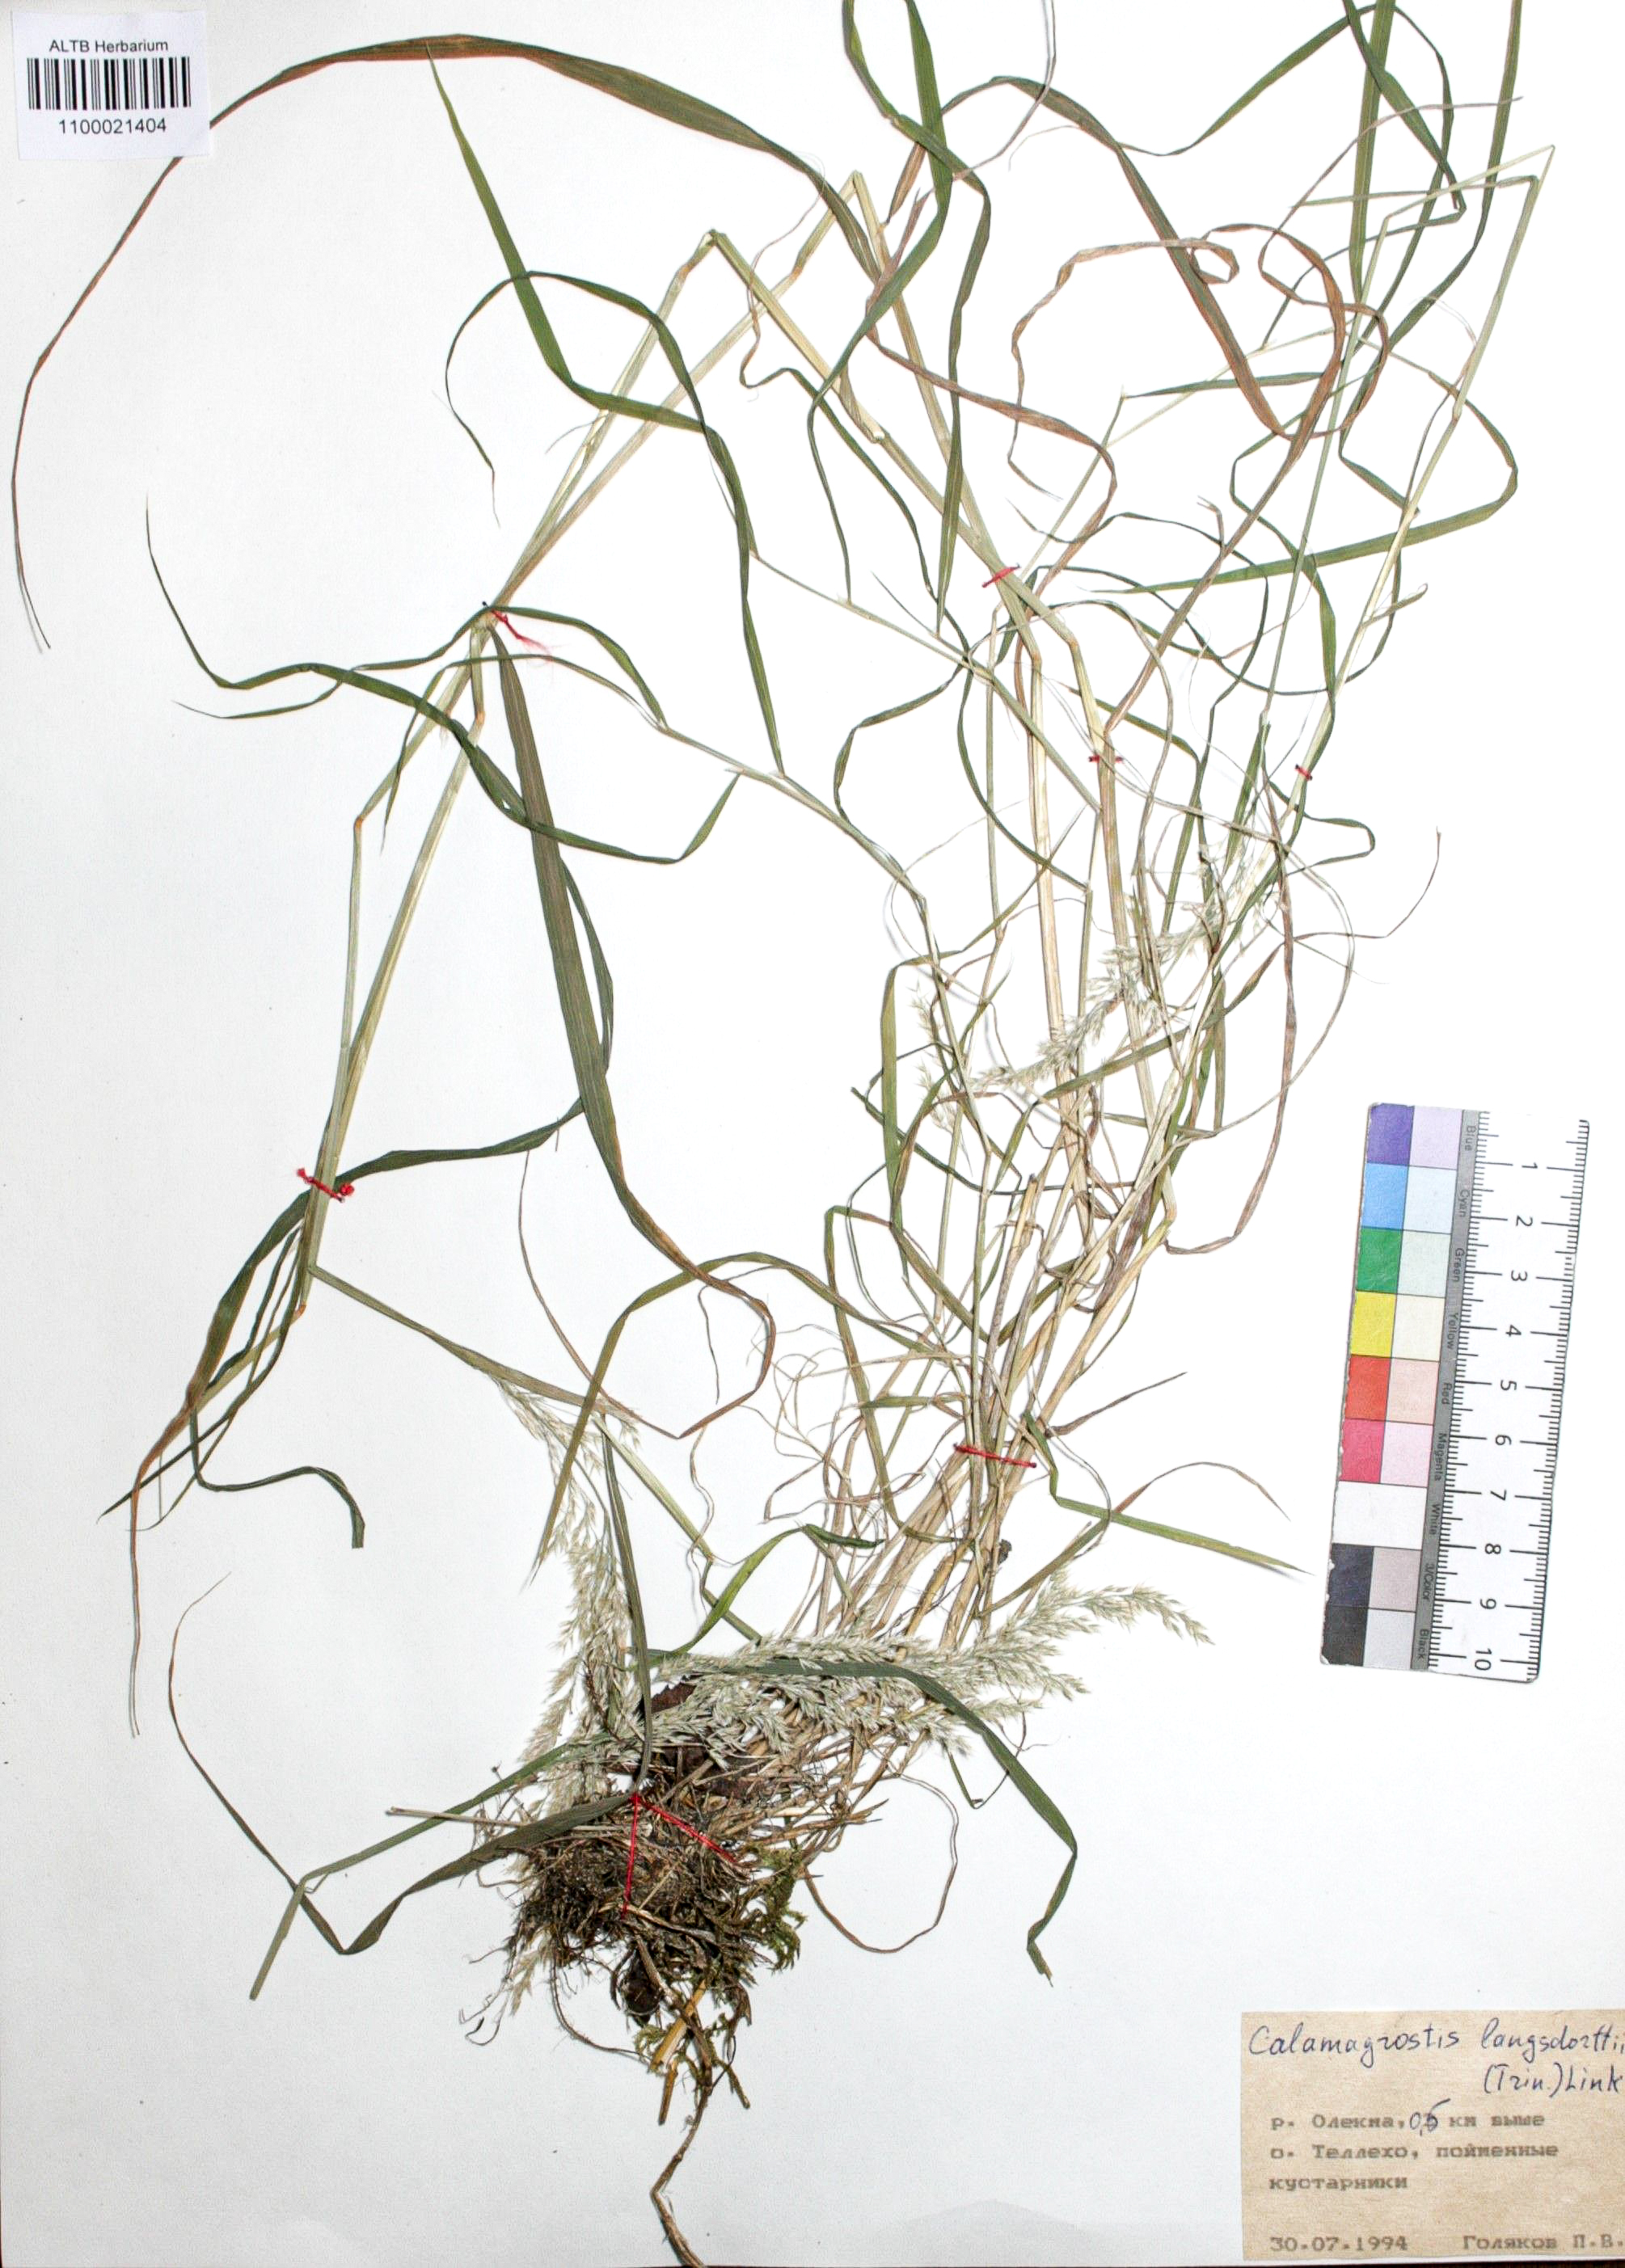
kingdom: Plantae
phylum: Tracheophyta
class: Liliopsida
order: Poales
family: Poaceae
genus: Calamagrostis
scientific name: Calamagrostis purpurea
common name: Scandinavian small-reed
